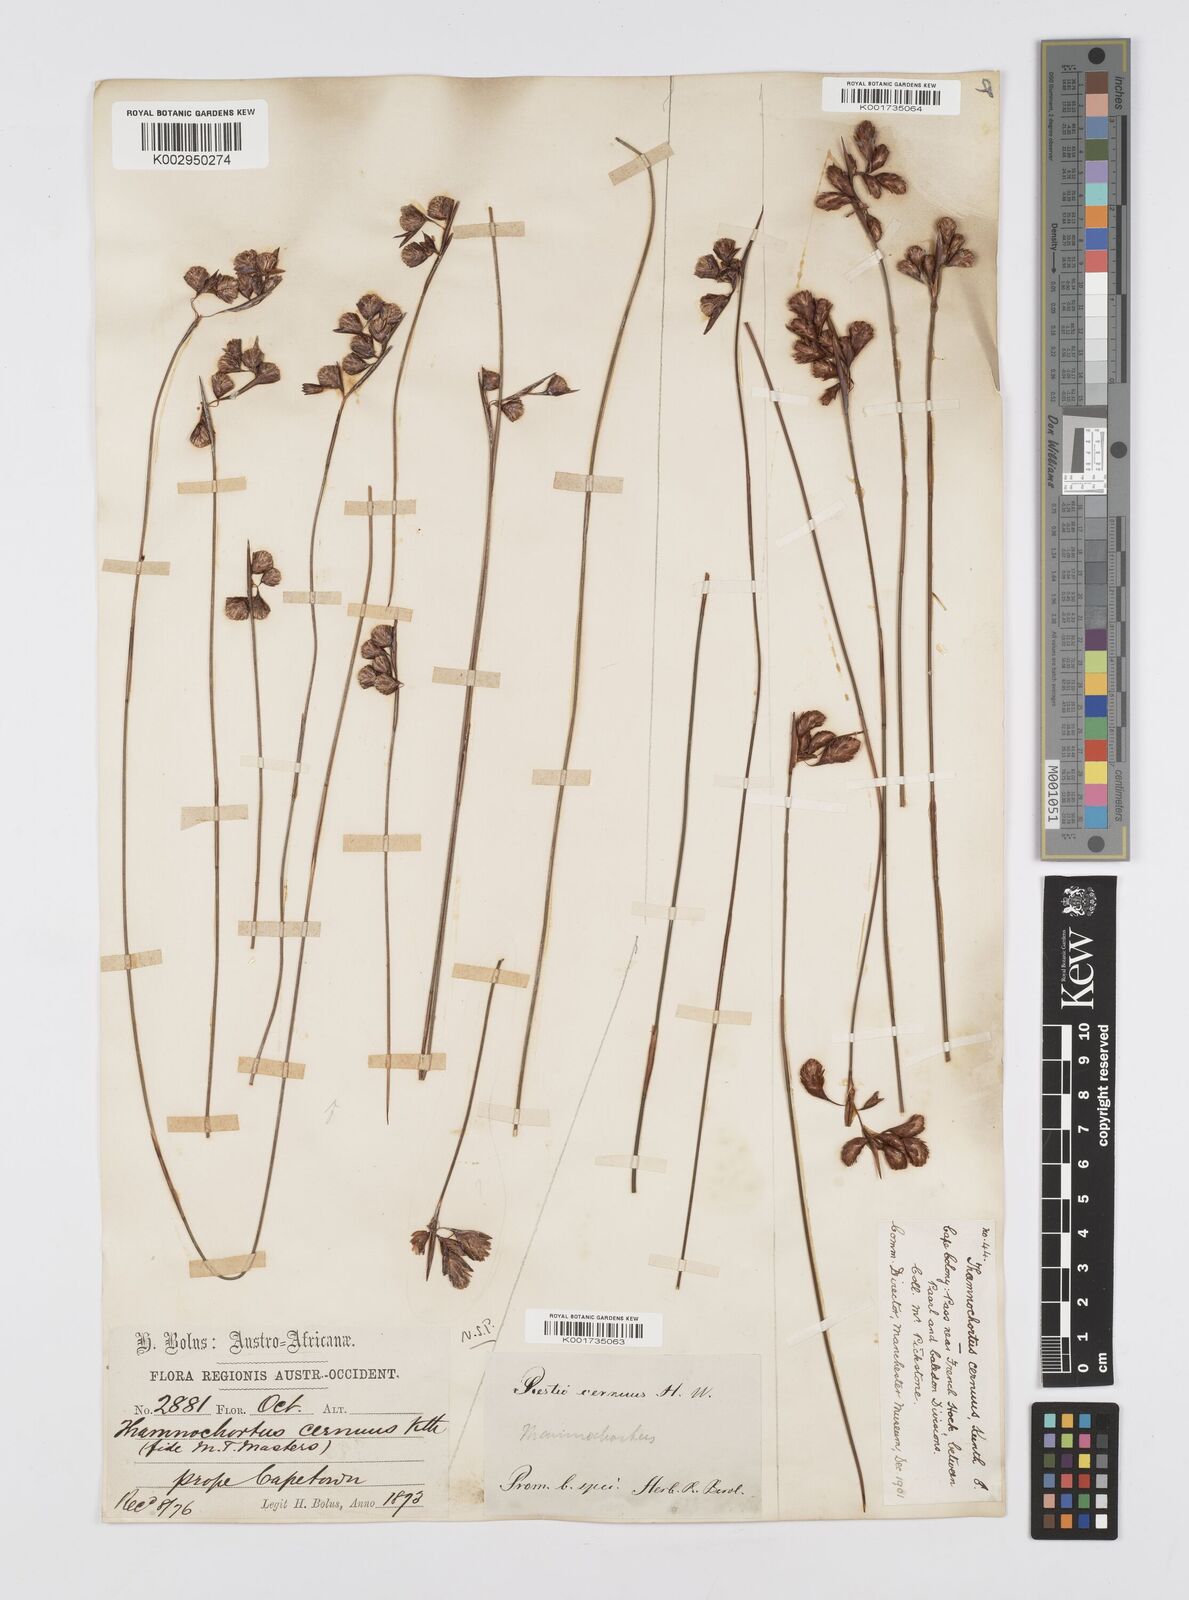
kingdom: Plantae
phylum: Tracheophyta
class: Liliopsida
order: Poales
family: Restionaceae
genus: Staberoha
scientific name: Staberoha cernua
